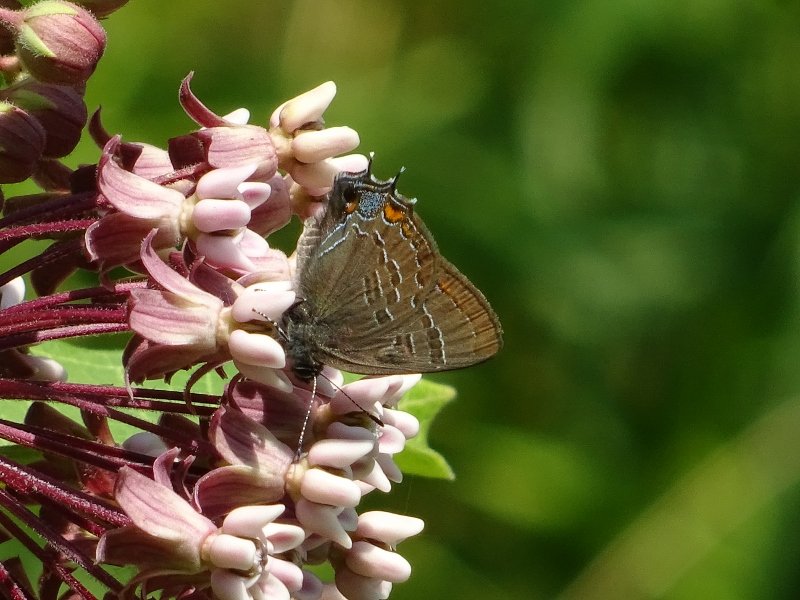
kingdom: Animalia
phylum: Arthropoda
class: Insecta
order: Lepidoptera
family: Lycaenidae
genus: Satyrium
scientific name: Satyrium calanus
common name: Banded Hairstreak
